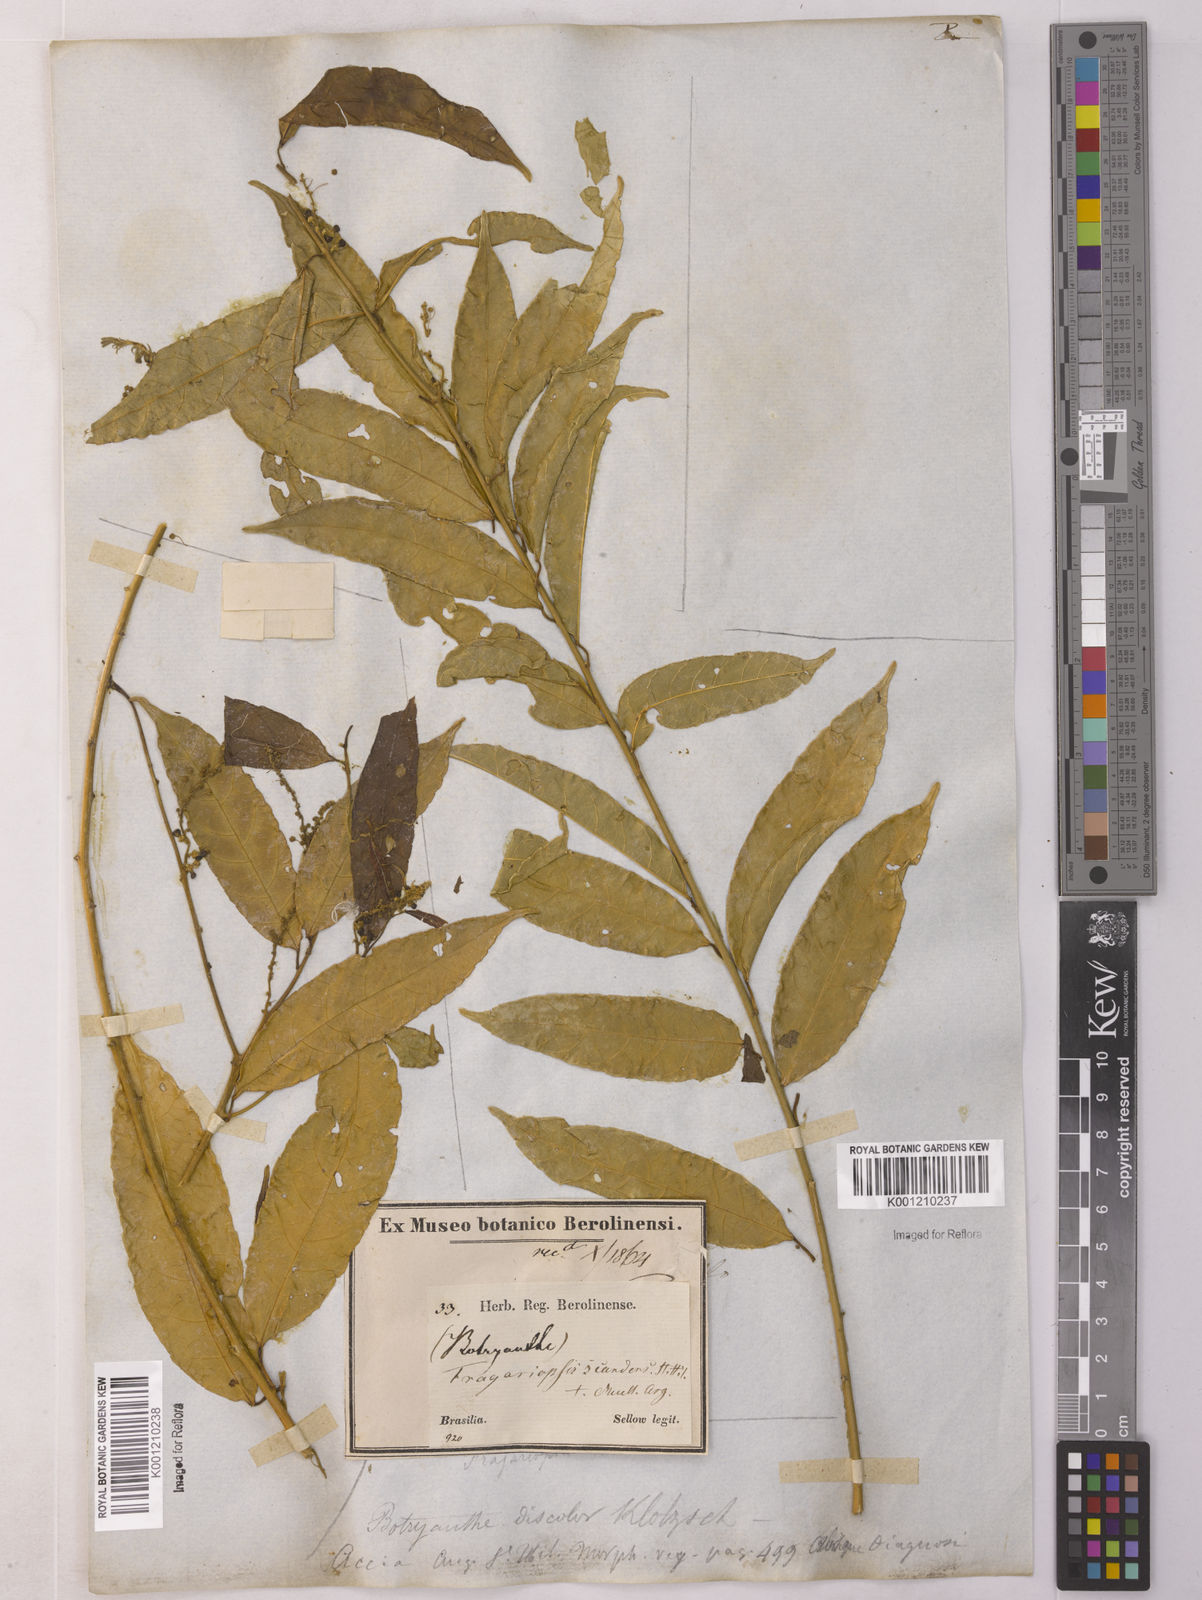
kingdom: Plantae
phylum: Tracheophyta
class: Magnoliopsida
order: Malpighiales
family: Euphorbiaceae
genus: Plukenetia
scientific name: Plukenetia serrata
